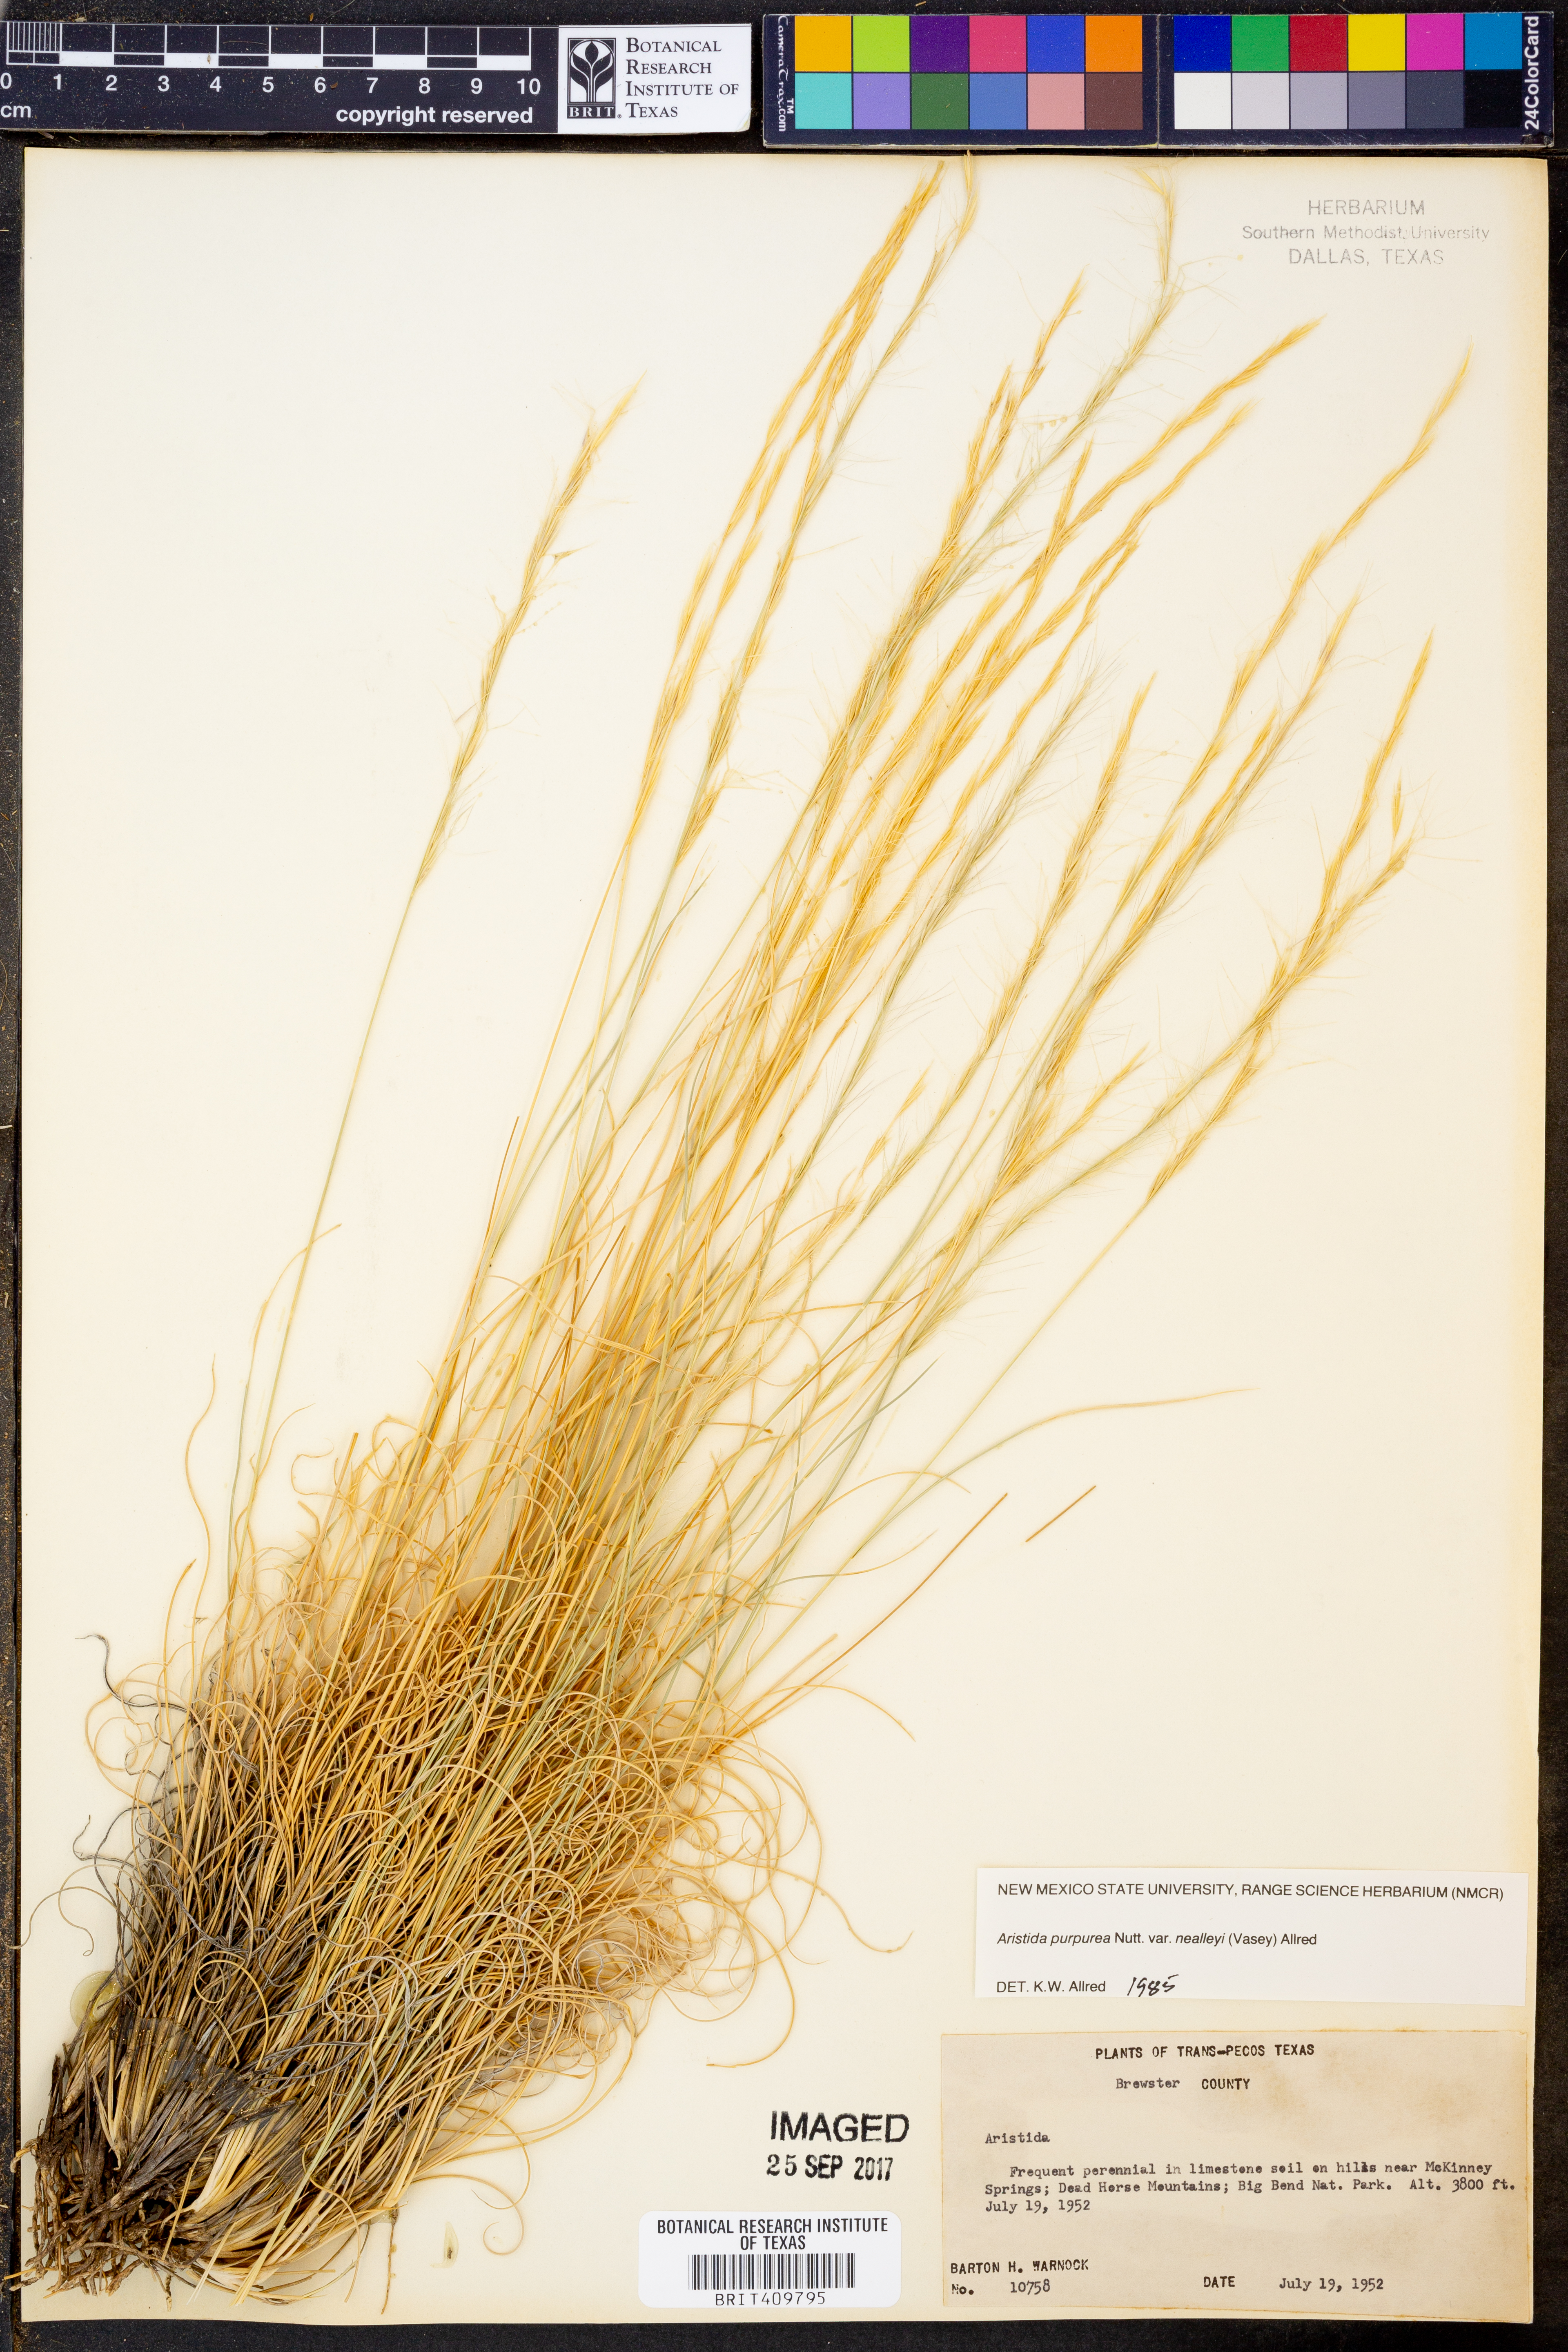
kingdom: Plantae
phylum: Tracheophyta
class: Liliopsida
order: Poales
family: Poaceae
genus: Aristida
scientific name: Aristida glauca
